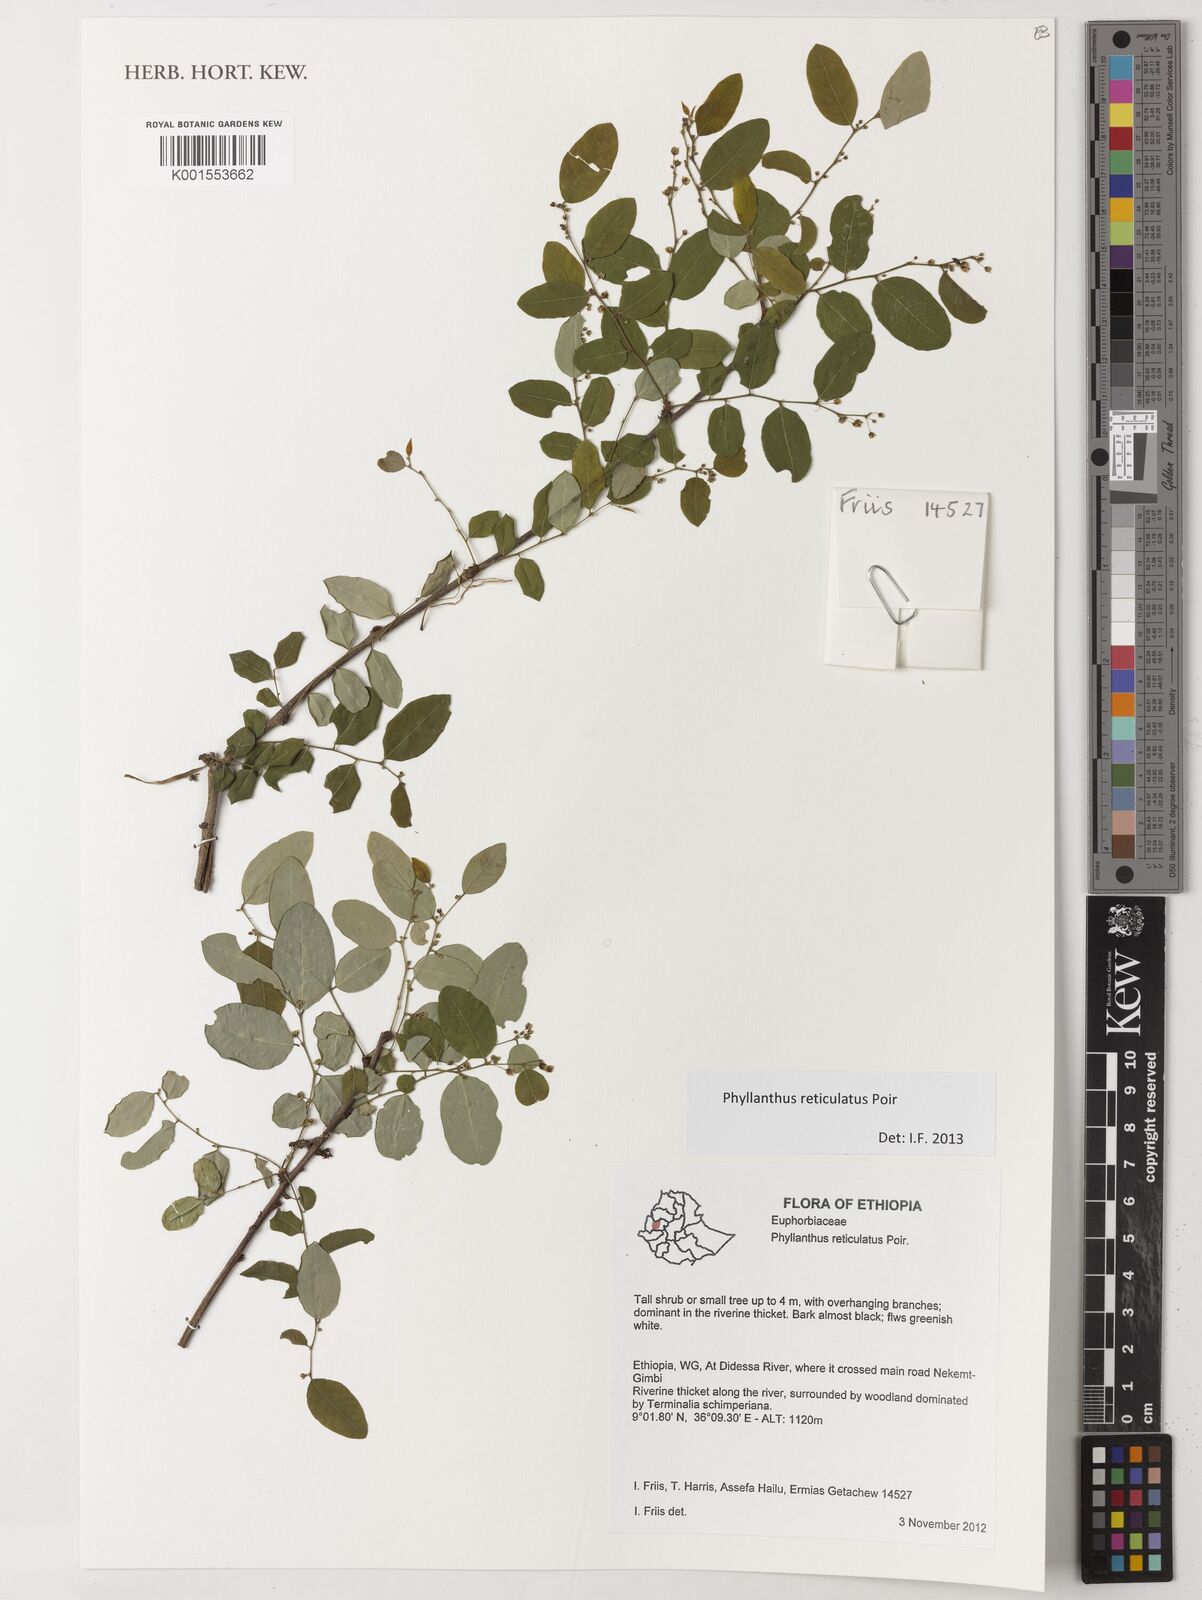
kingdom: Plantae
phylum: Tracheophyta
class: Magnoliopsida
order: Malpighiales
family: Phyllanthaceae
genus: Phyllanthus
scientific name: Phyllanthus reticulatus
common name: Potato bush
